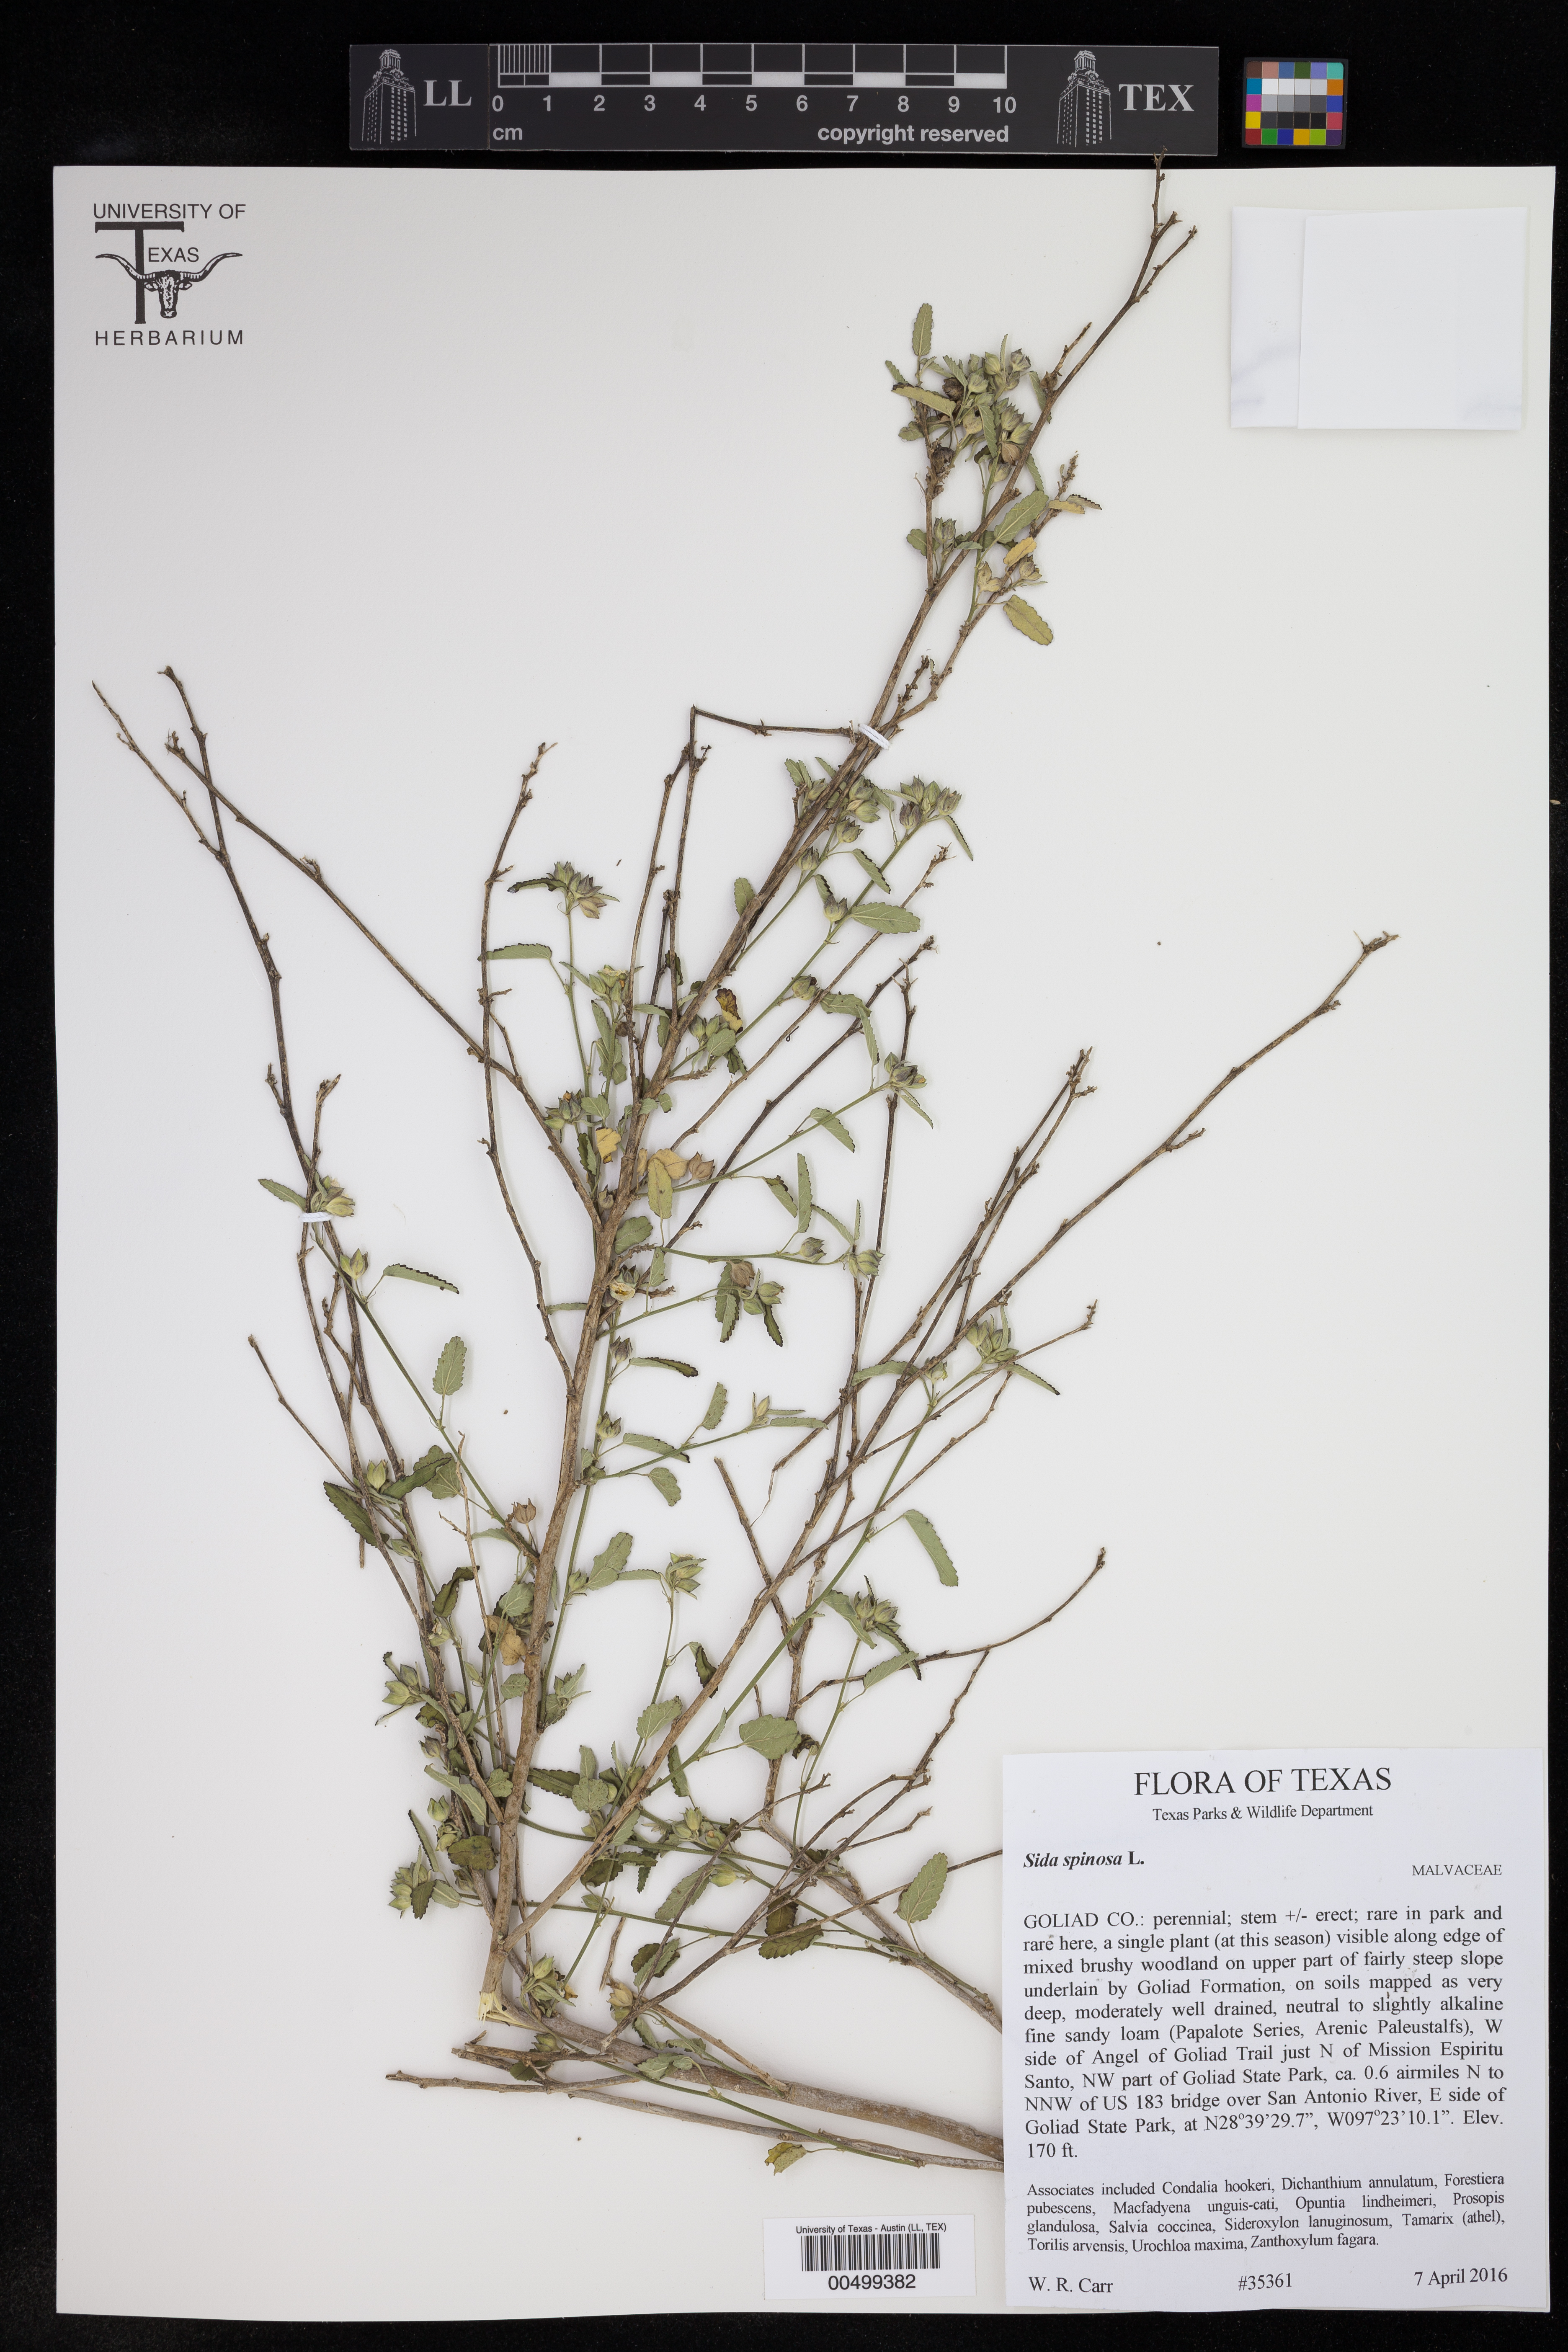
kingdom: Plantae
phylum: Tracheophyta
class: Magnoliopsida
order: Malvales
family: Malvaceae
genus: Sida
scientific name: Sida spinosa
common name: Prickly fanpetals
